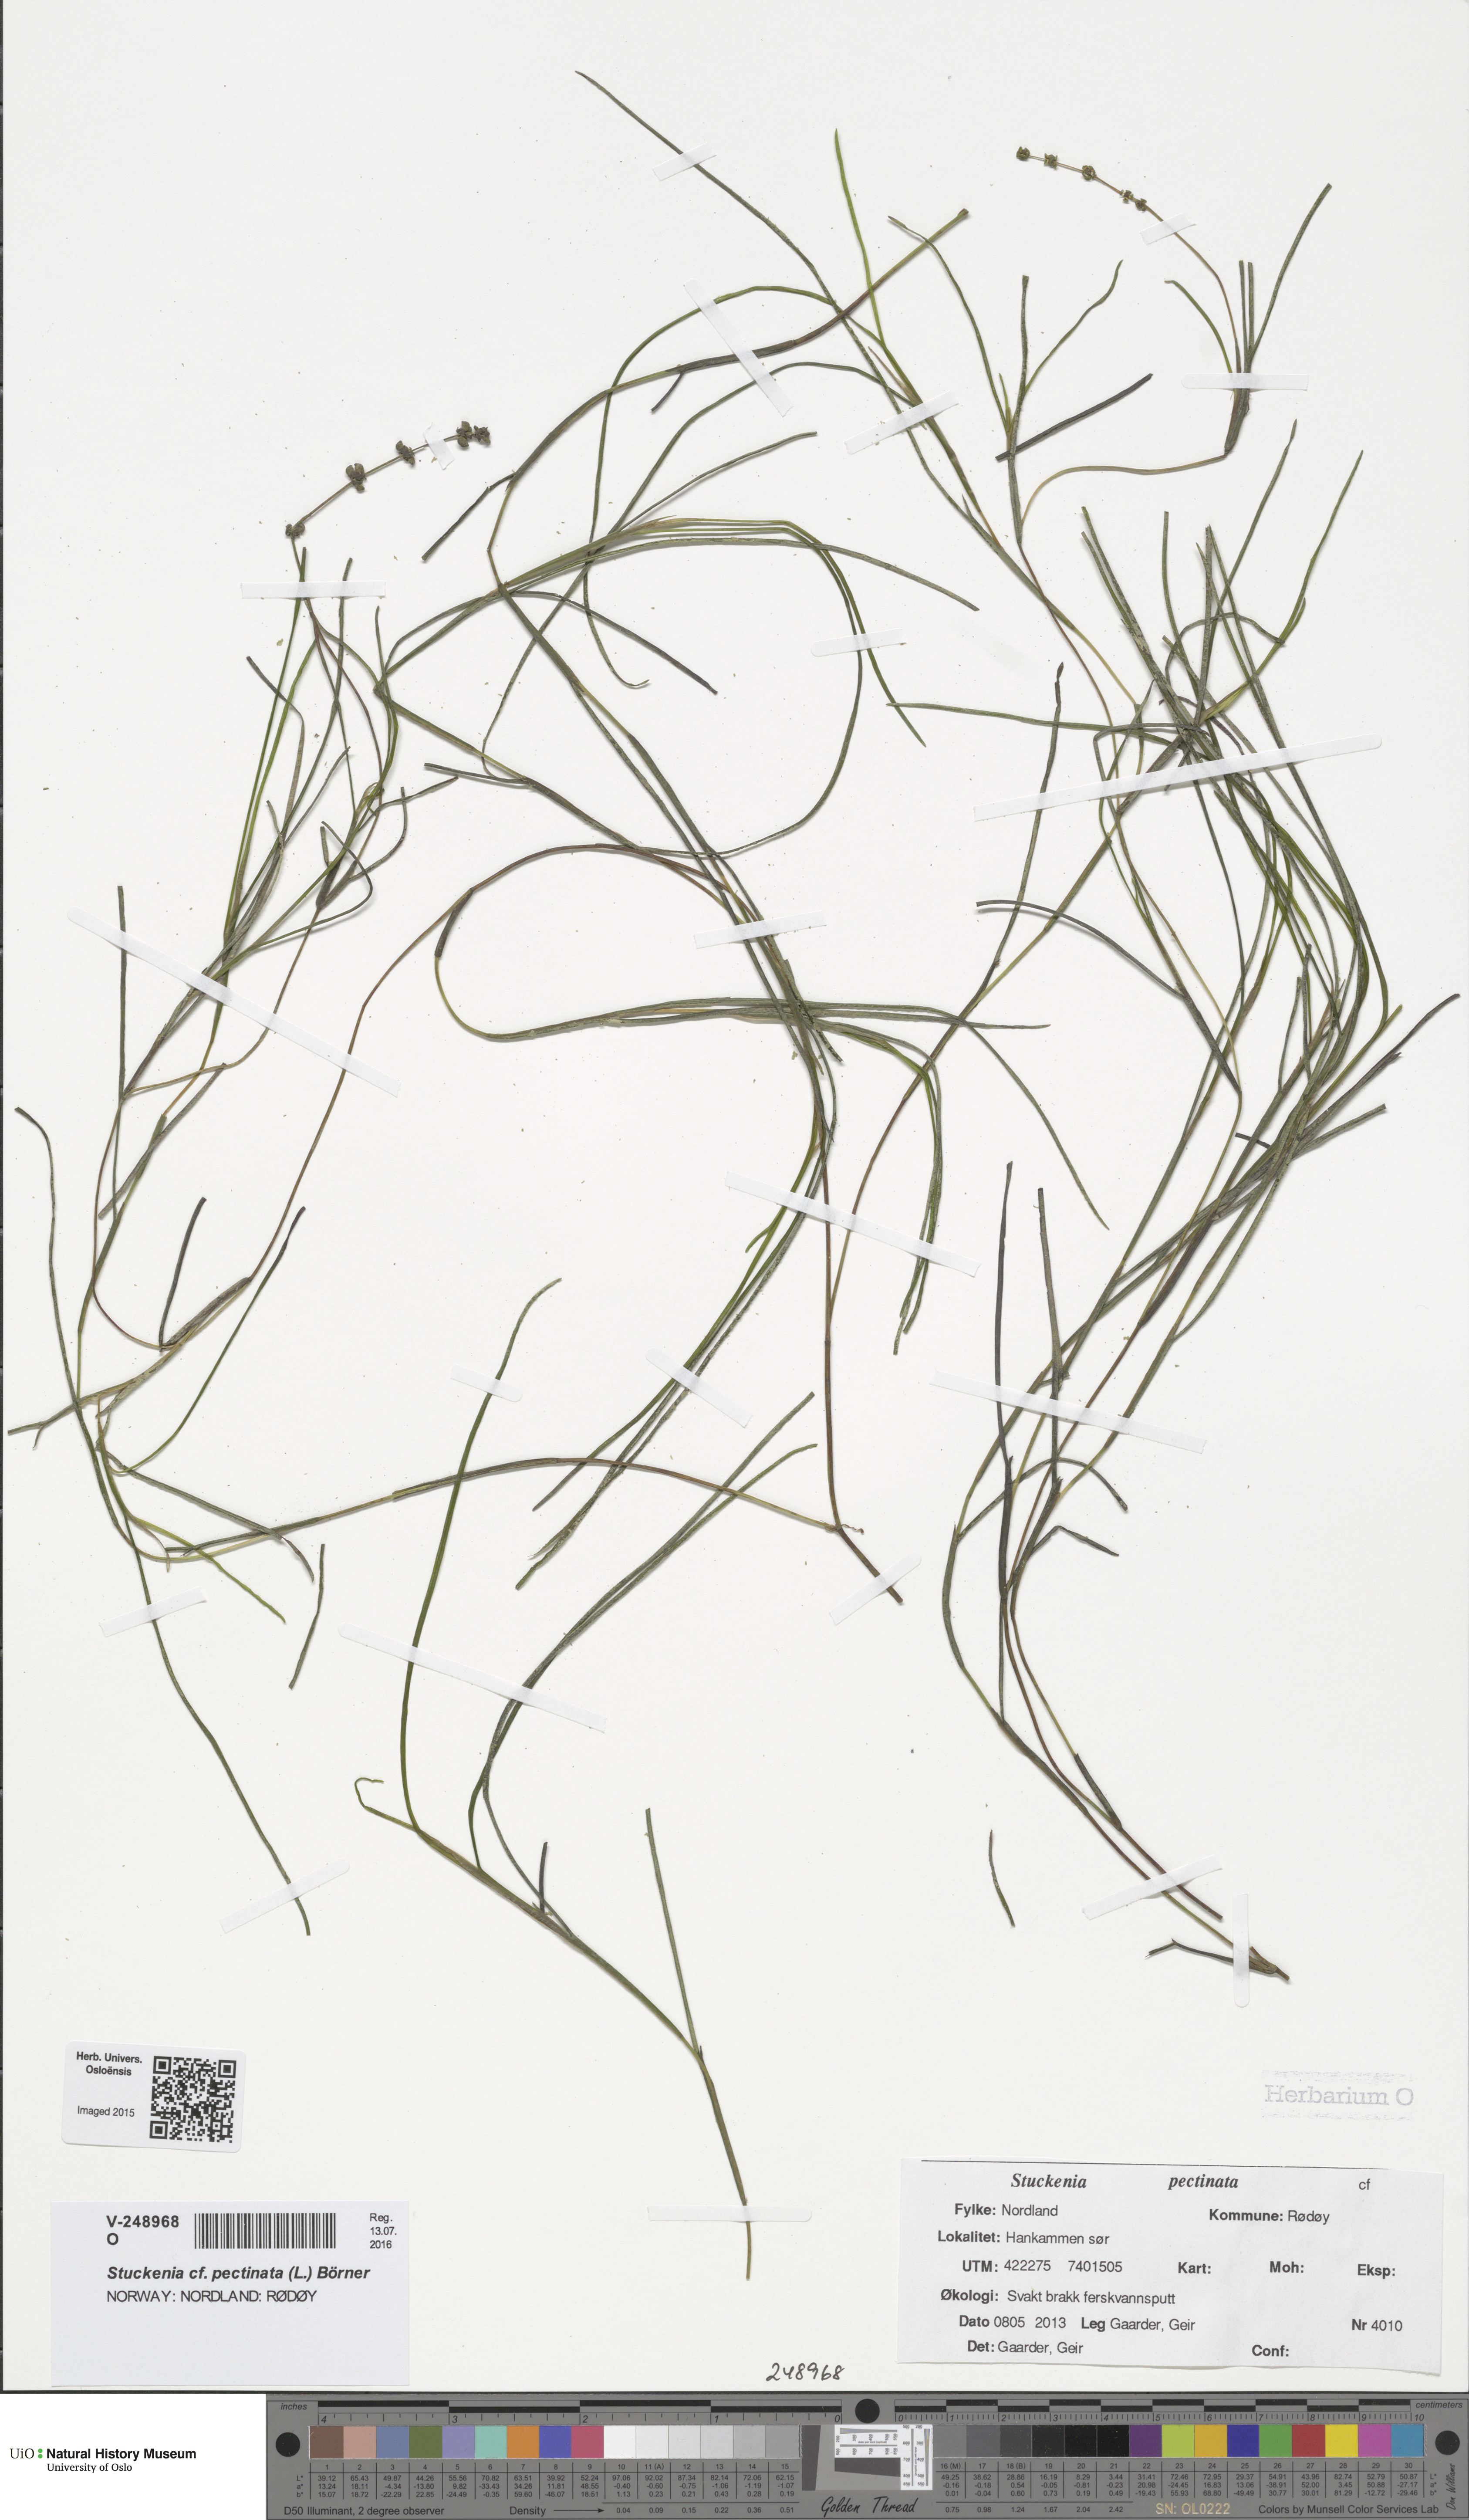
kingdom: Plantae
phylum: Tracheophyta
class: Liliopsida
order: Alismatales
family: Potamogetonaceae
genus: Stuckenia
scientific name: Stuckenia pectinata
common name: Sago pondweed
